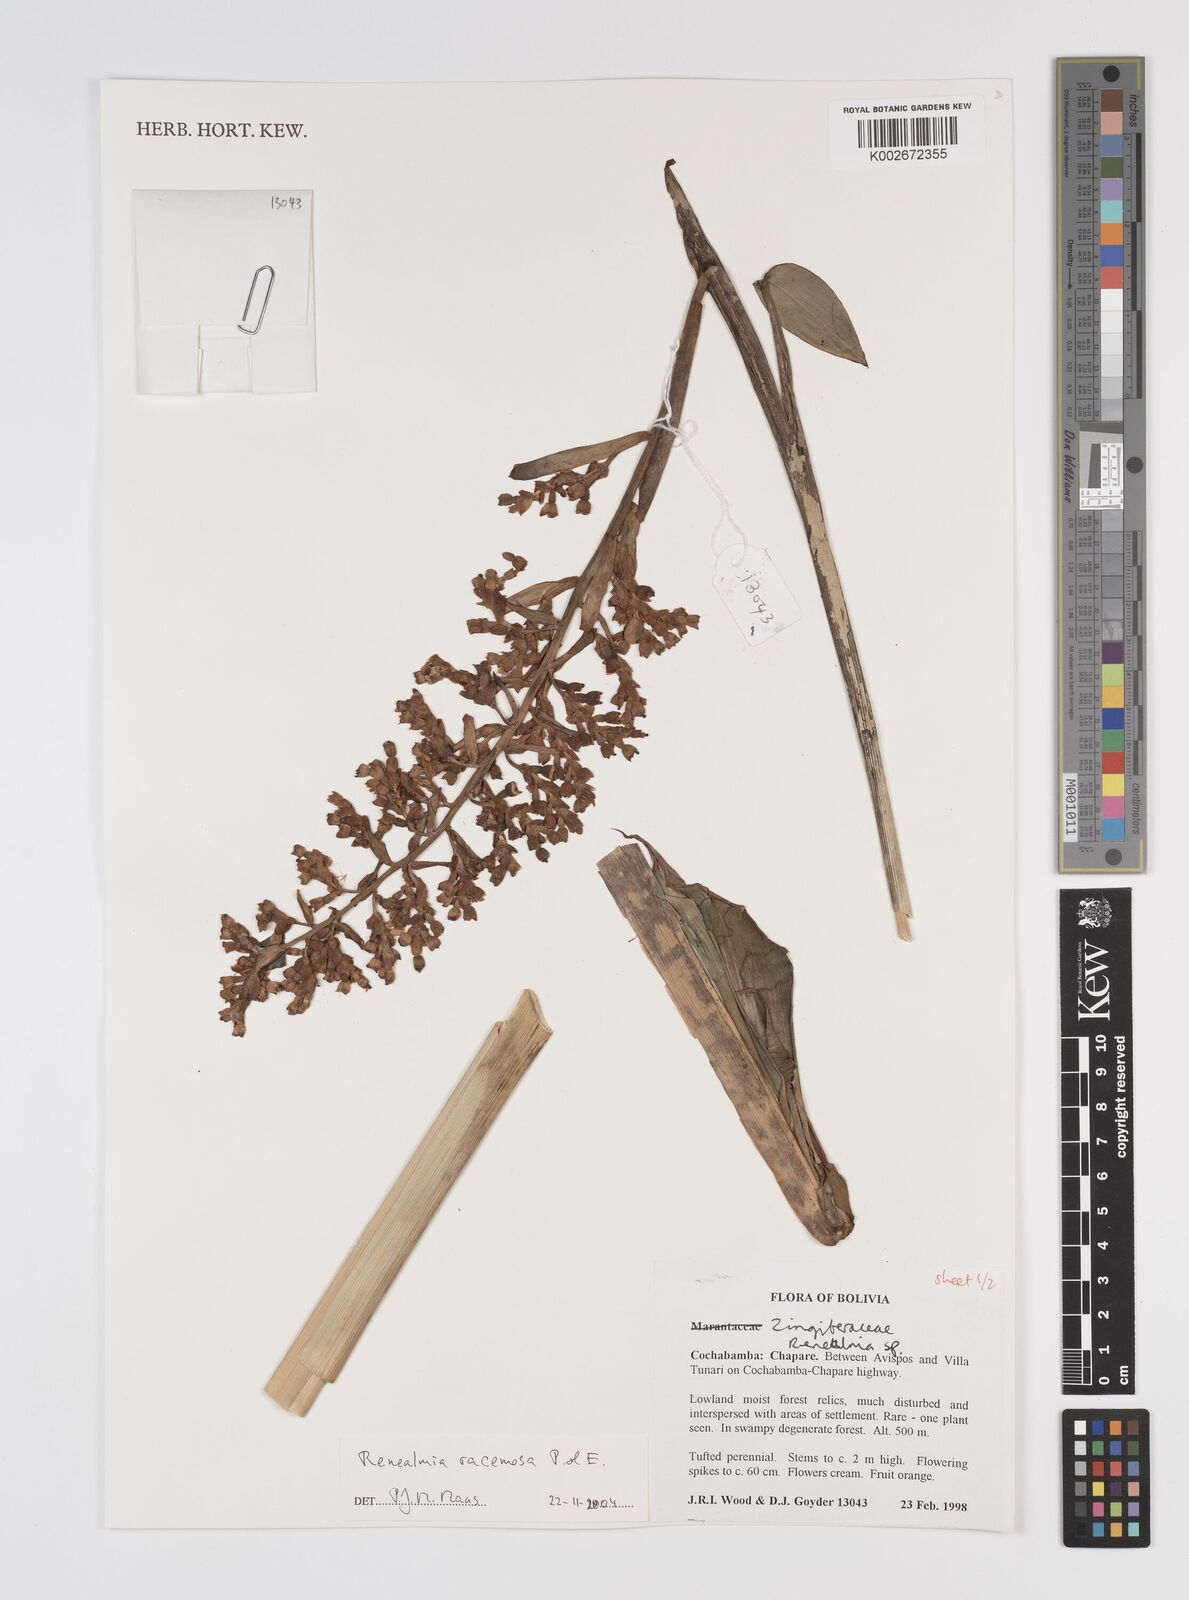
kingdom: Plantae
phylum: Tracheophyta
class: Liliopsida
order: Zingiberales
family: Zingiberaceae
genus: Renealmia
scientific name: Renealmia racemosa
